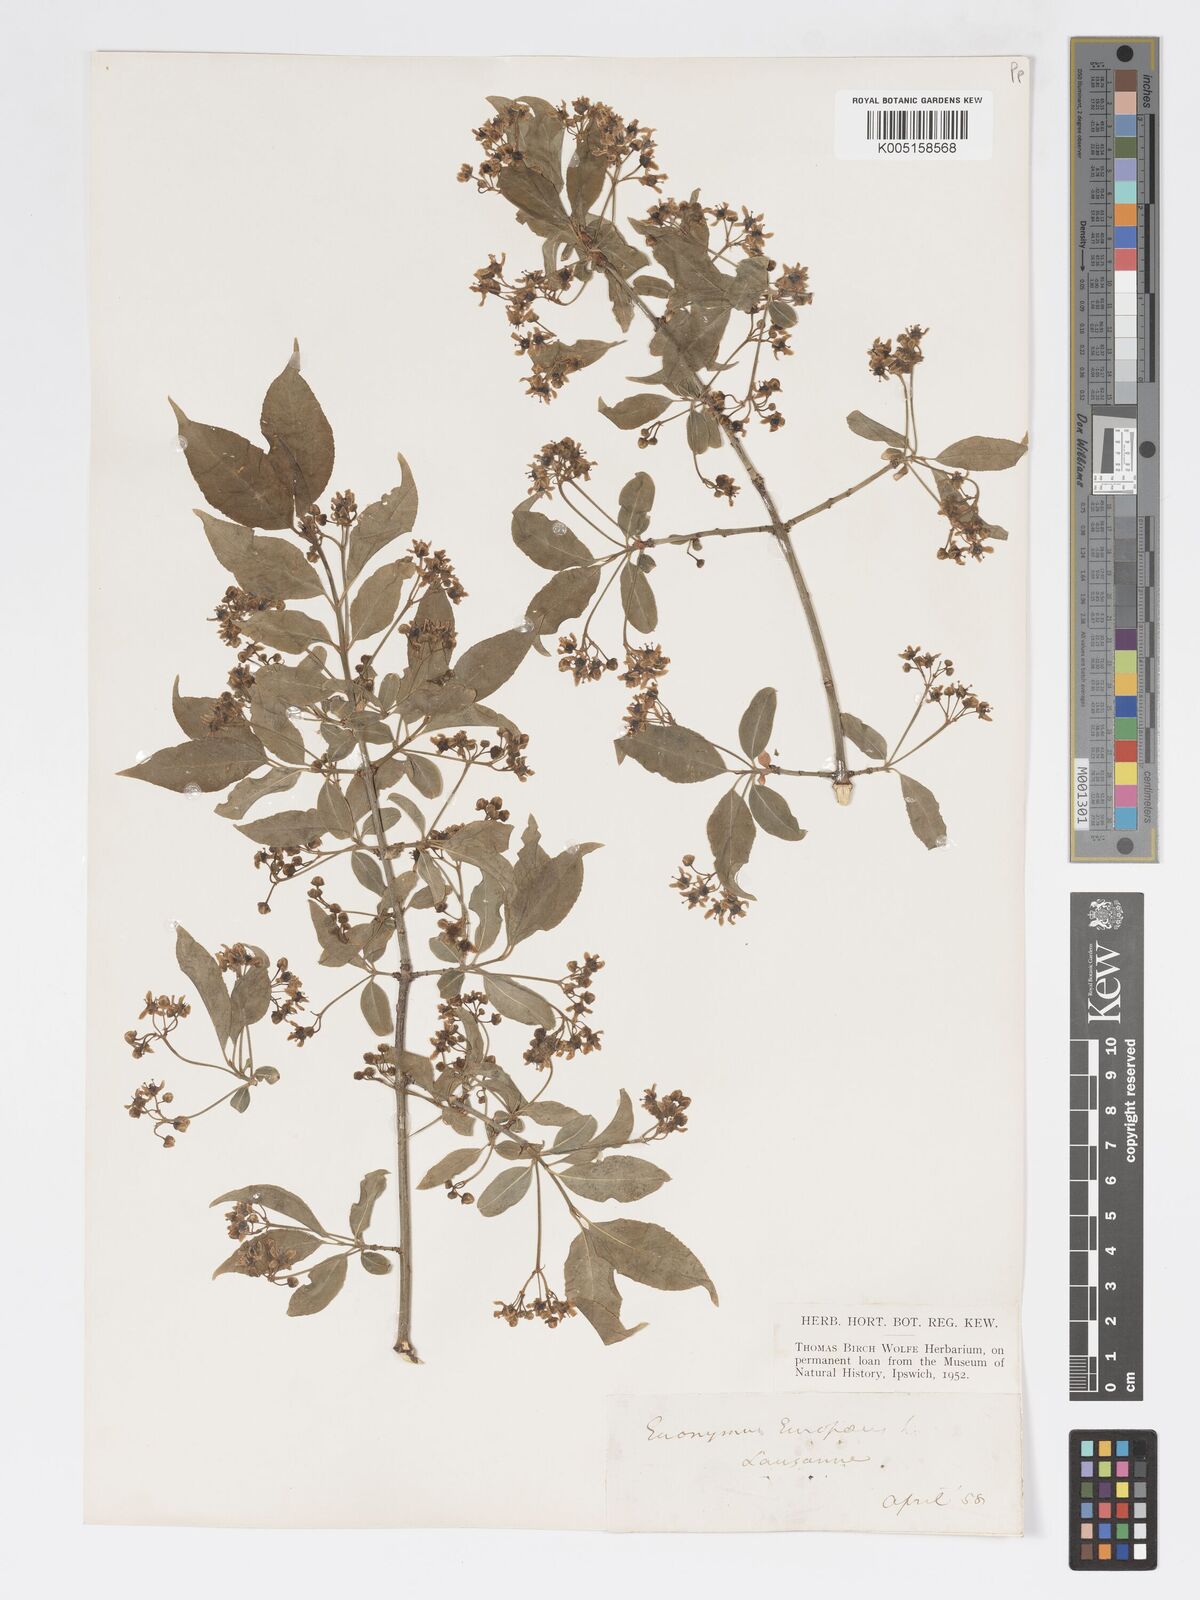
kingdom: Plantae
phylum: Tracheophyta
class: Magnoliopsida
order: Celastrales
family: Celastraceae
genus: Euonymus
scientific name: Euonymus europaeus
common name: Spindle
